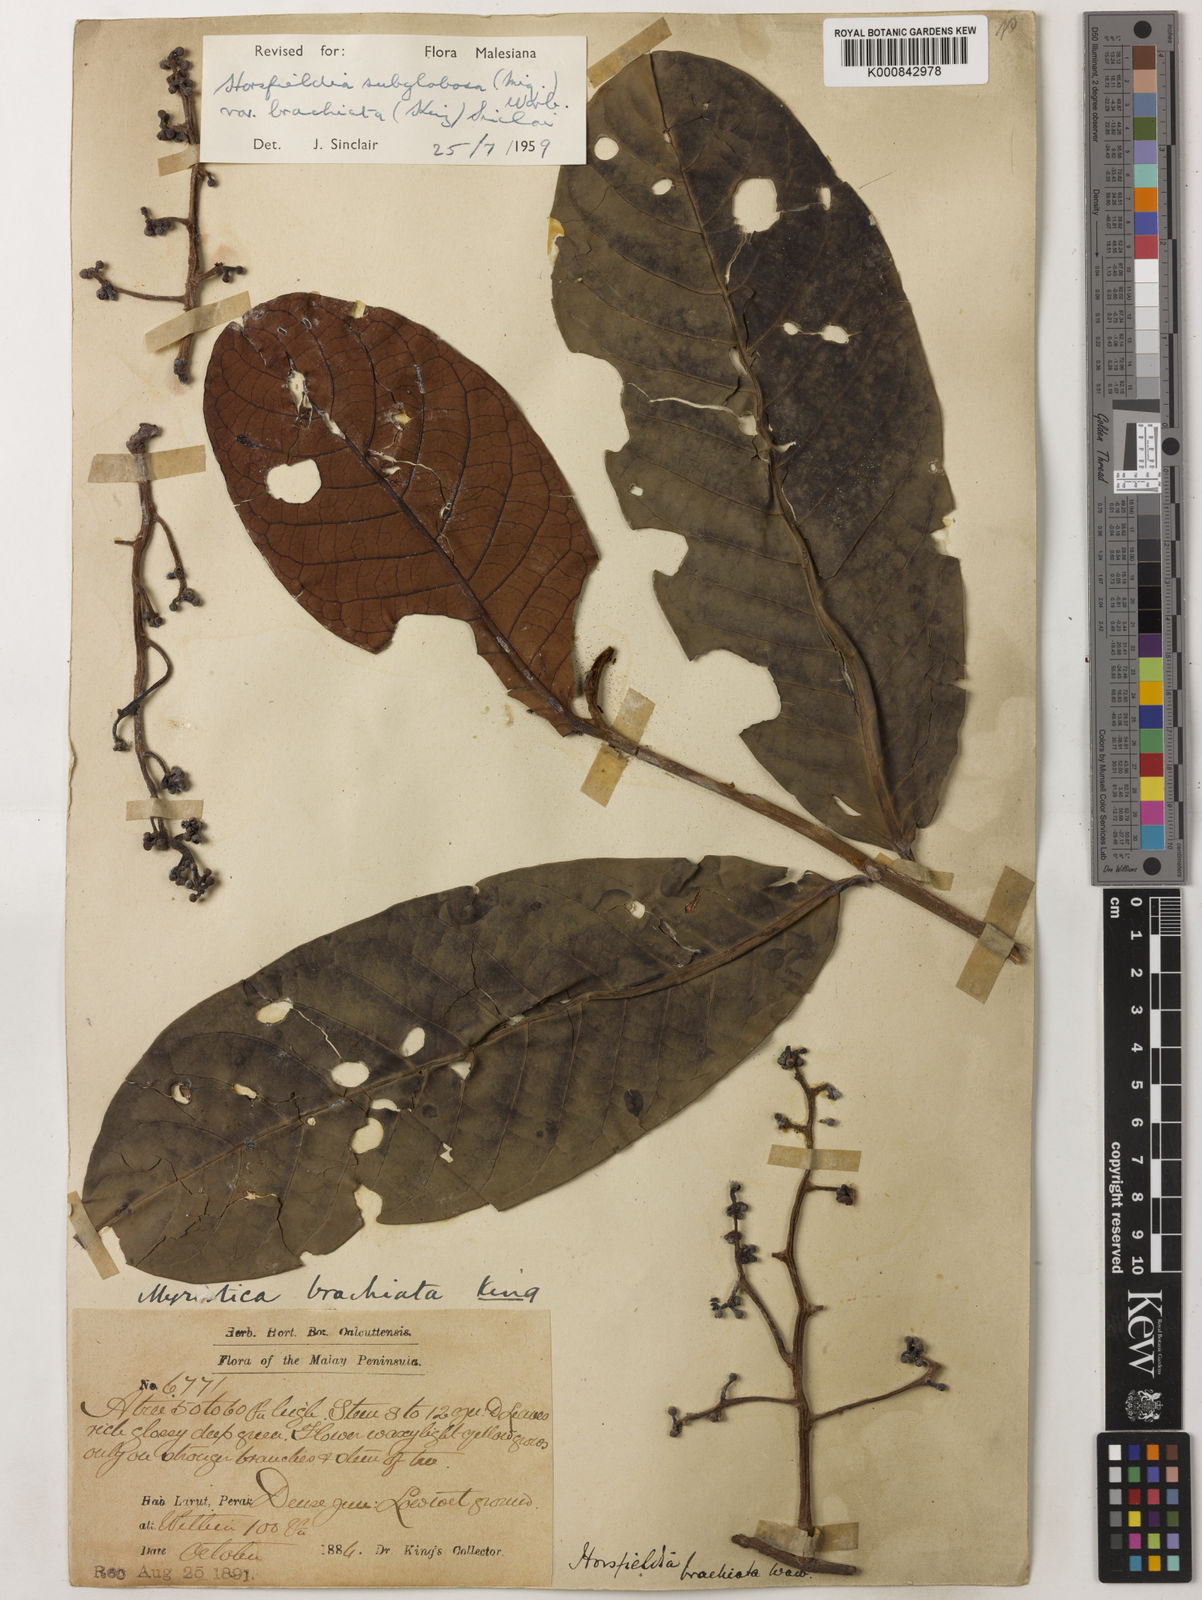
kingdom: Plantae
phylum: Tracheophyta
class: Magnoliopsida
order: Magnoliales
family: Myristicaceae
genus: Horsfieldia
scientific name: Horsfieldia brachiata
